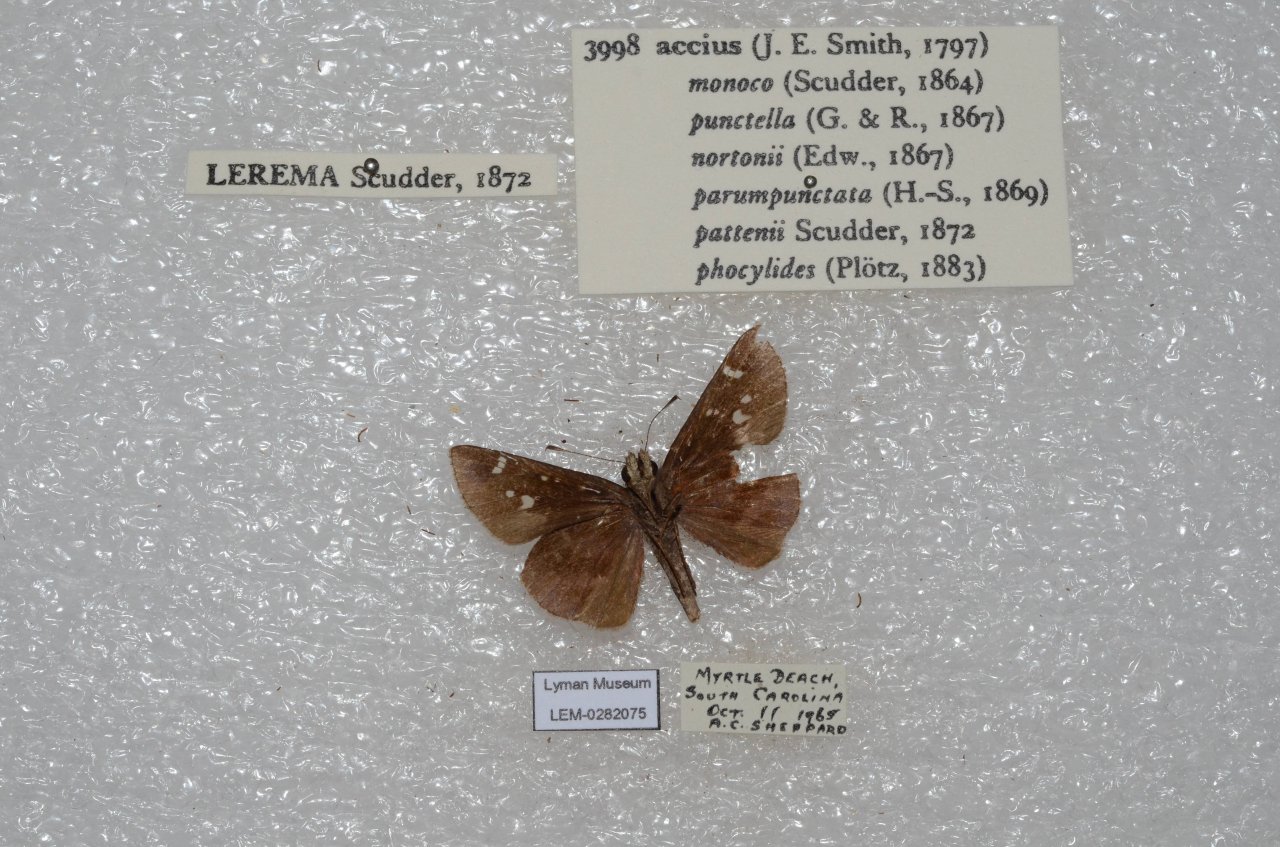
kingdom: Animalia
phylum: Arthropoda
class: Insecta
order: Lepidoptera
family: Hesperiidae
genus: Lerema
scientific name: Lerema accius
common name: Clouded Skipper
